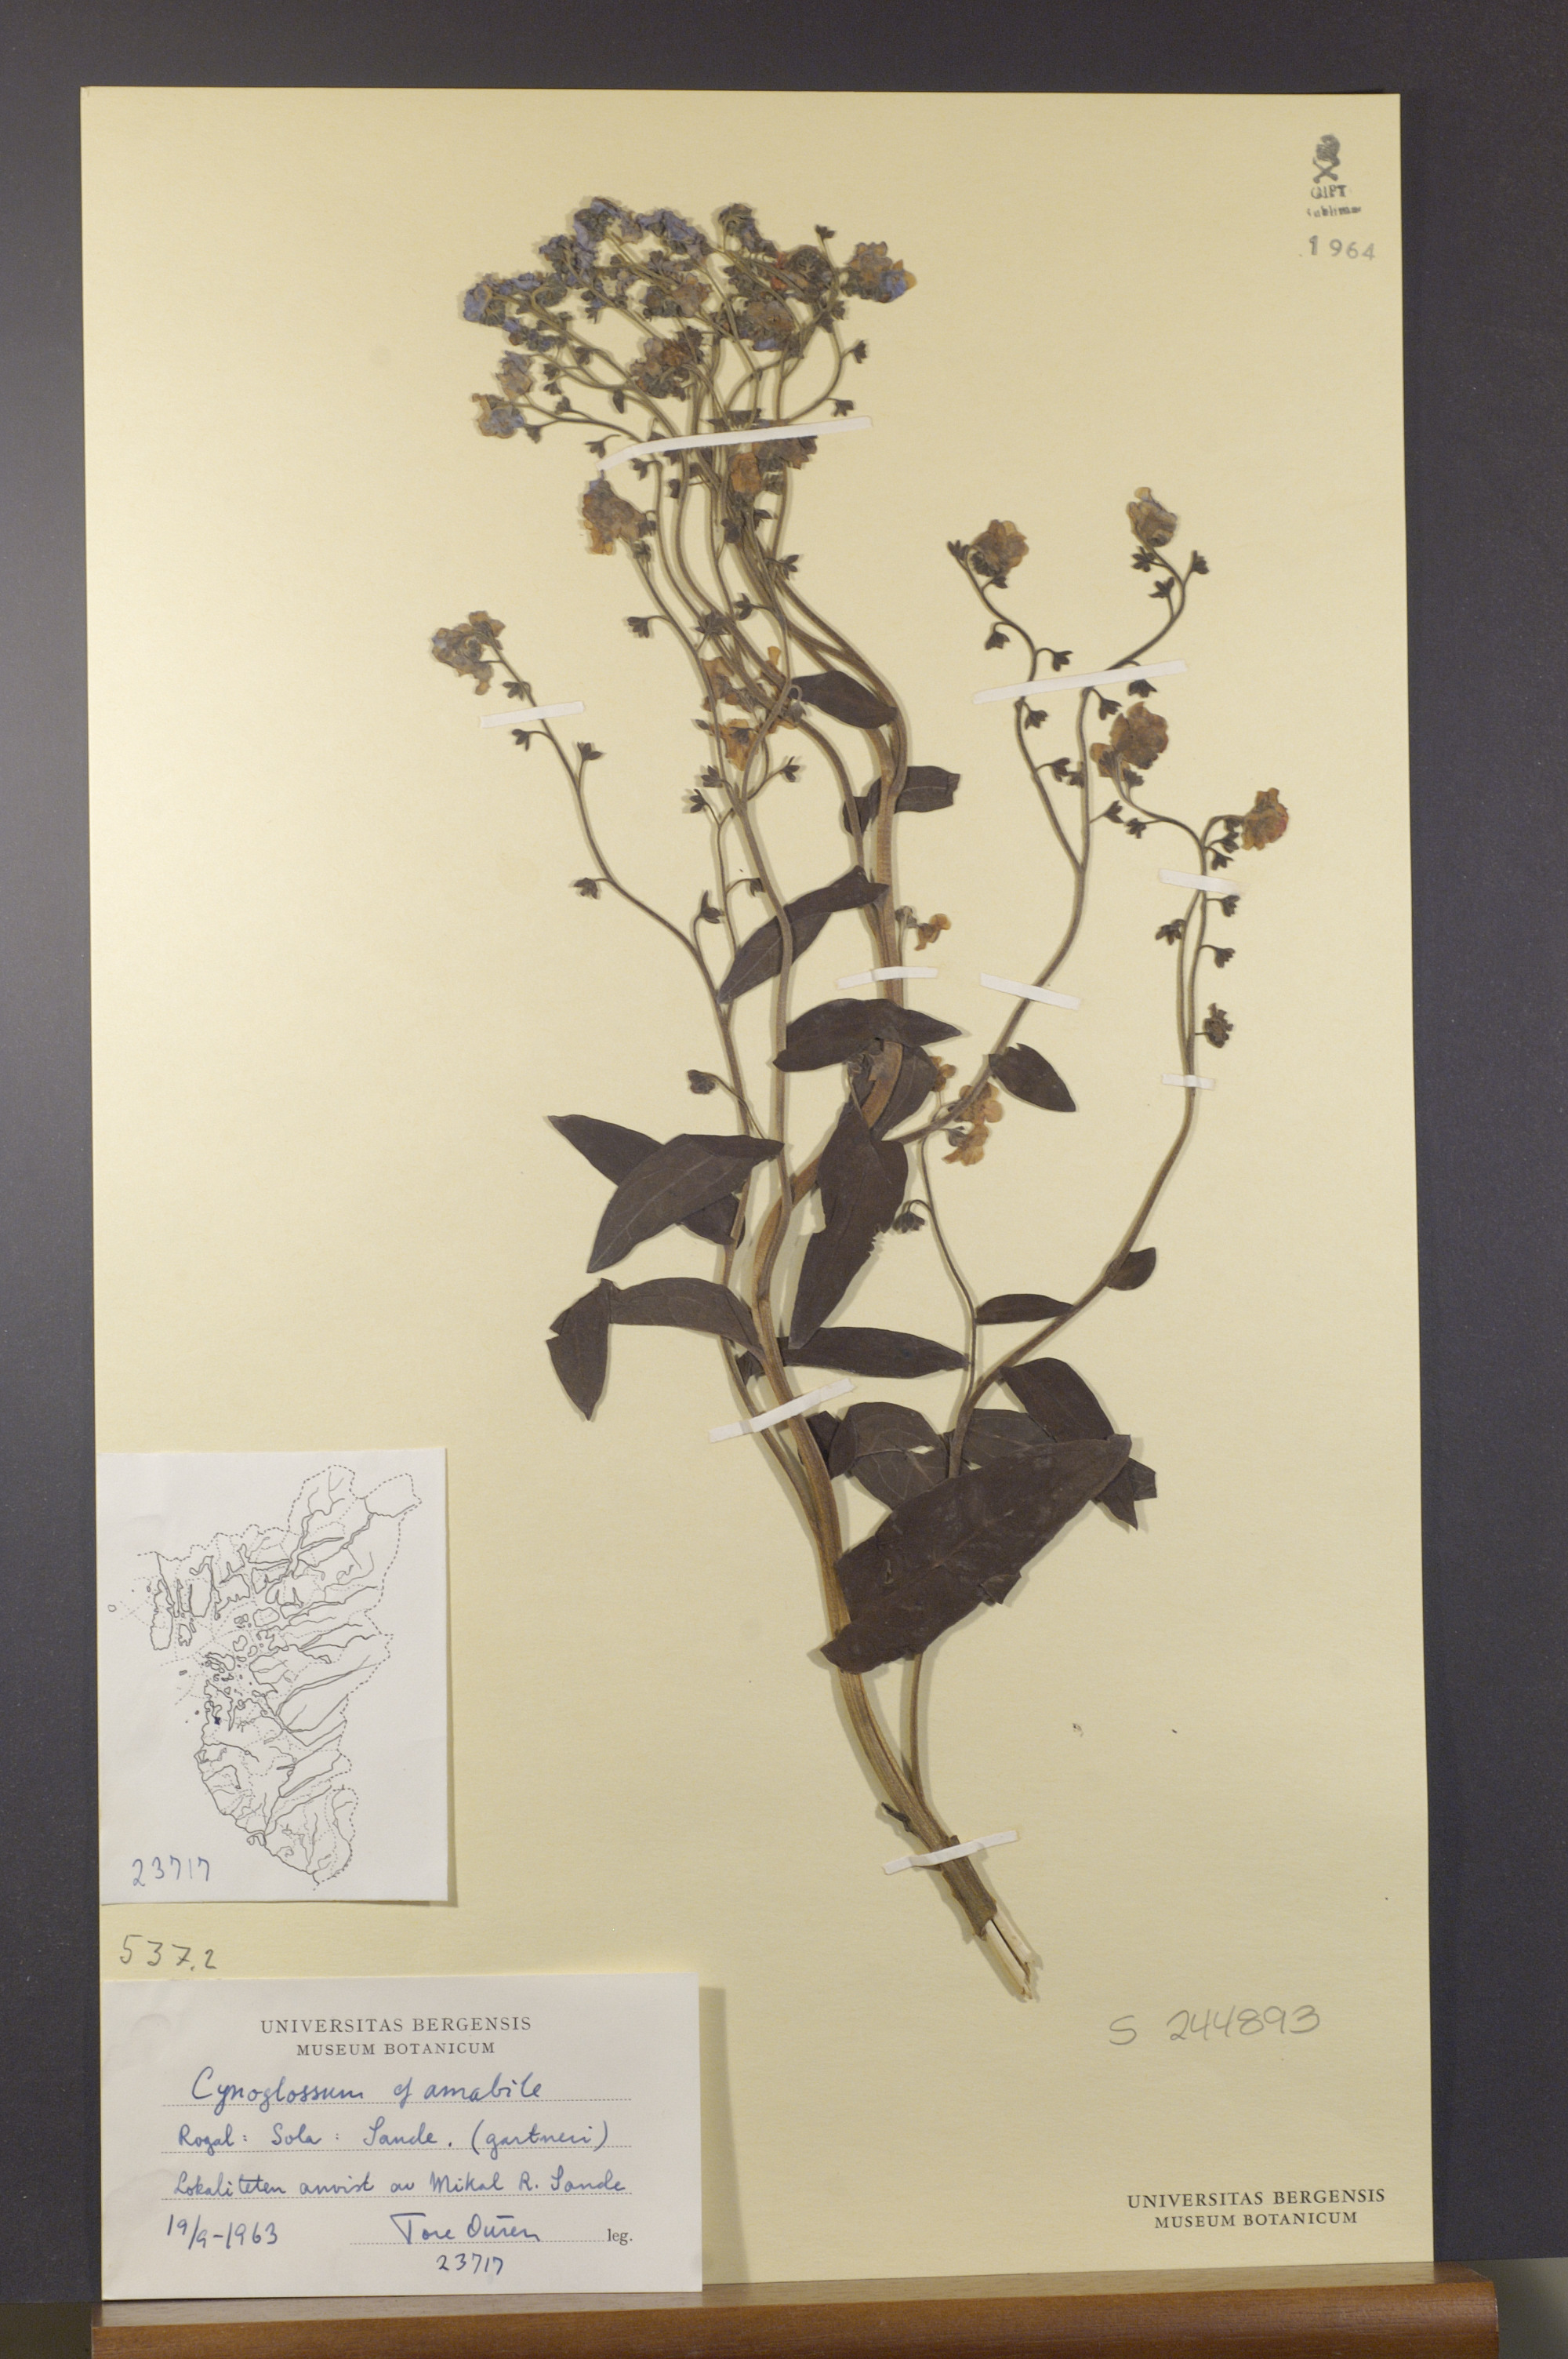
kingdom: Plantae
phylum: Tracheophyta
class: Magnoliopsida
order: Boraginales
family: Boraginaceae
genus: Cynoglossum
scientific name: Cynoglossum amabile
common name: Chinese hound's tongue
